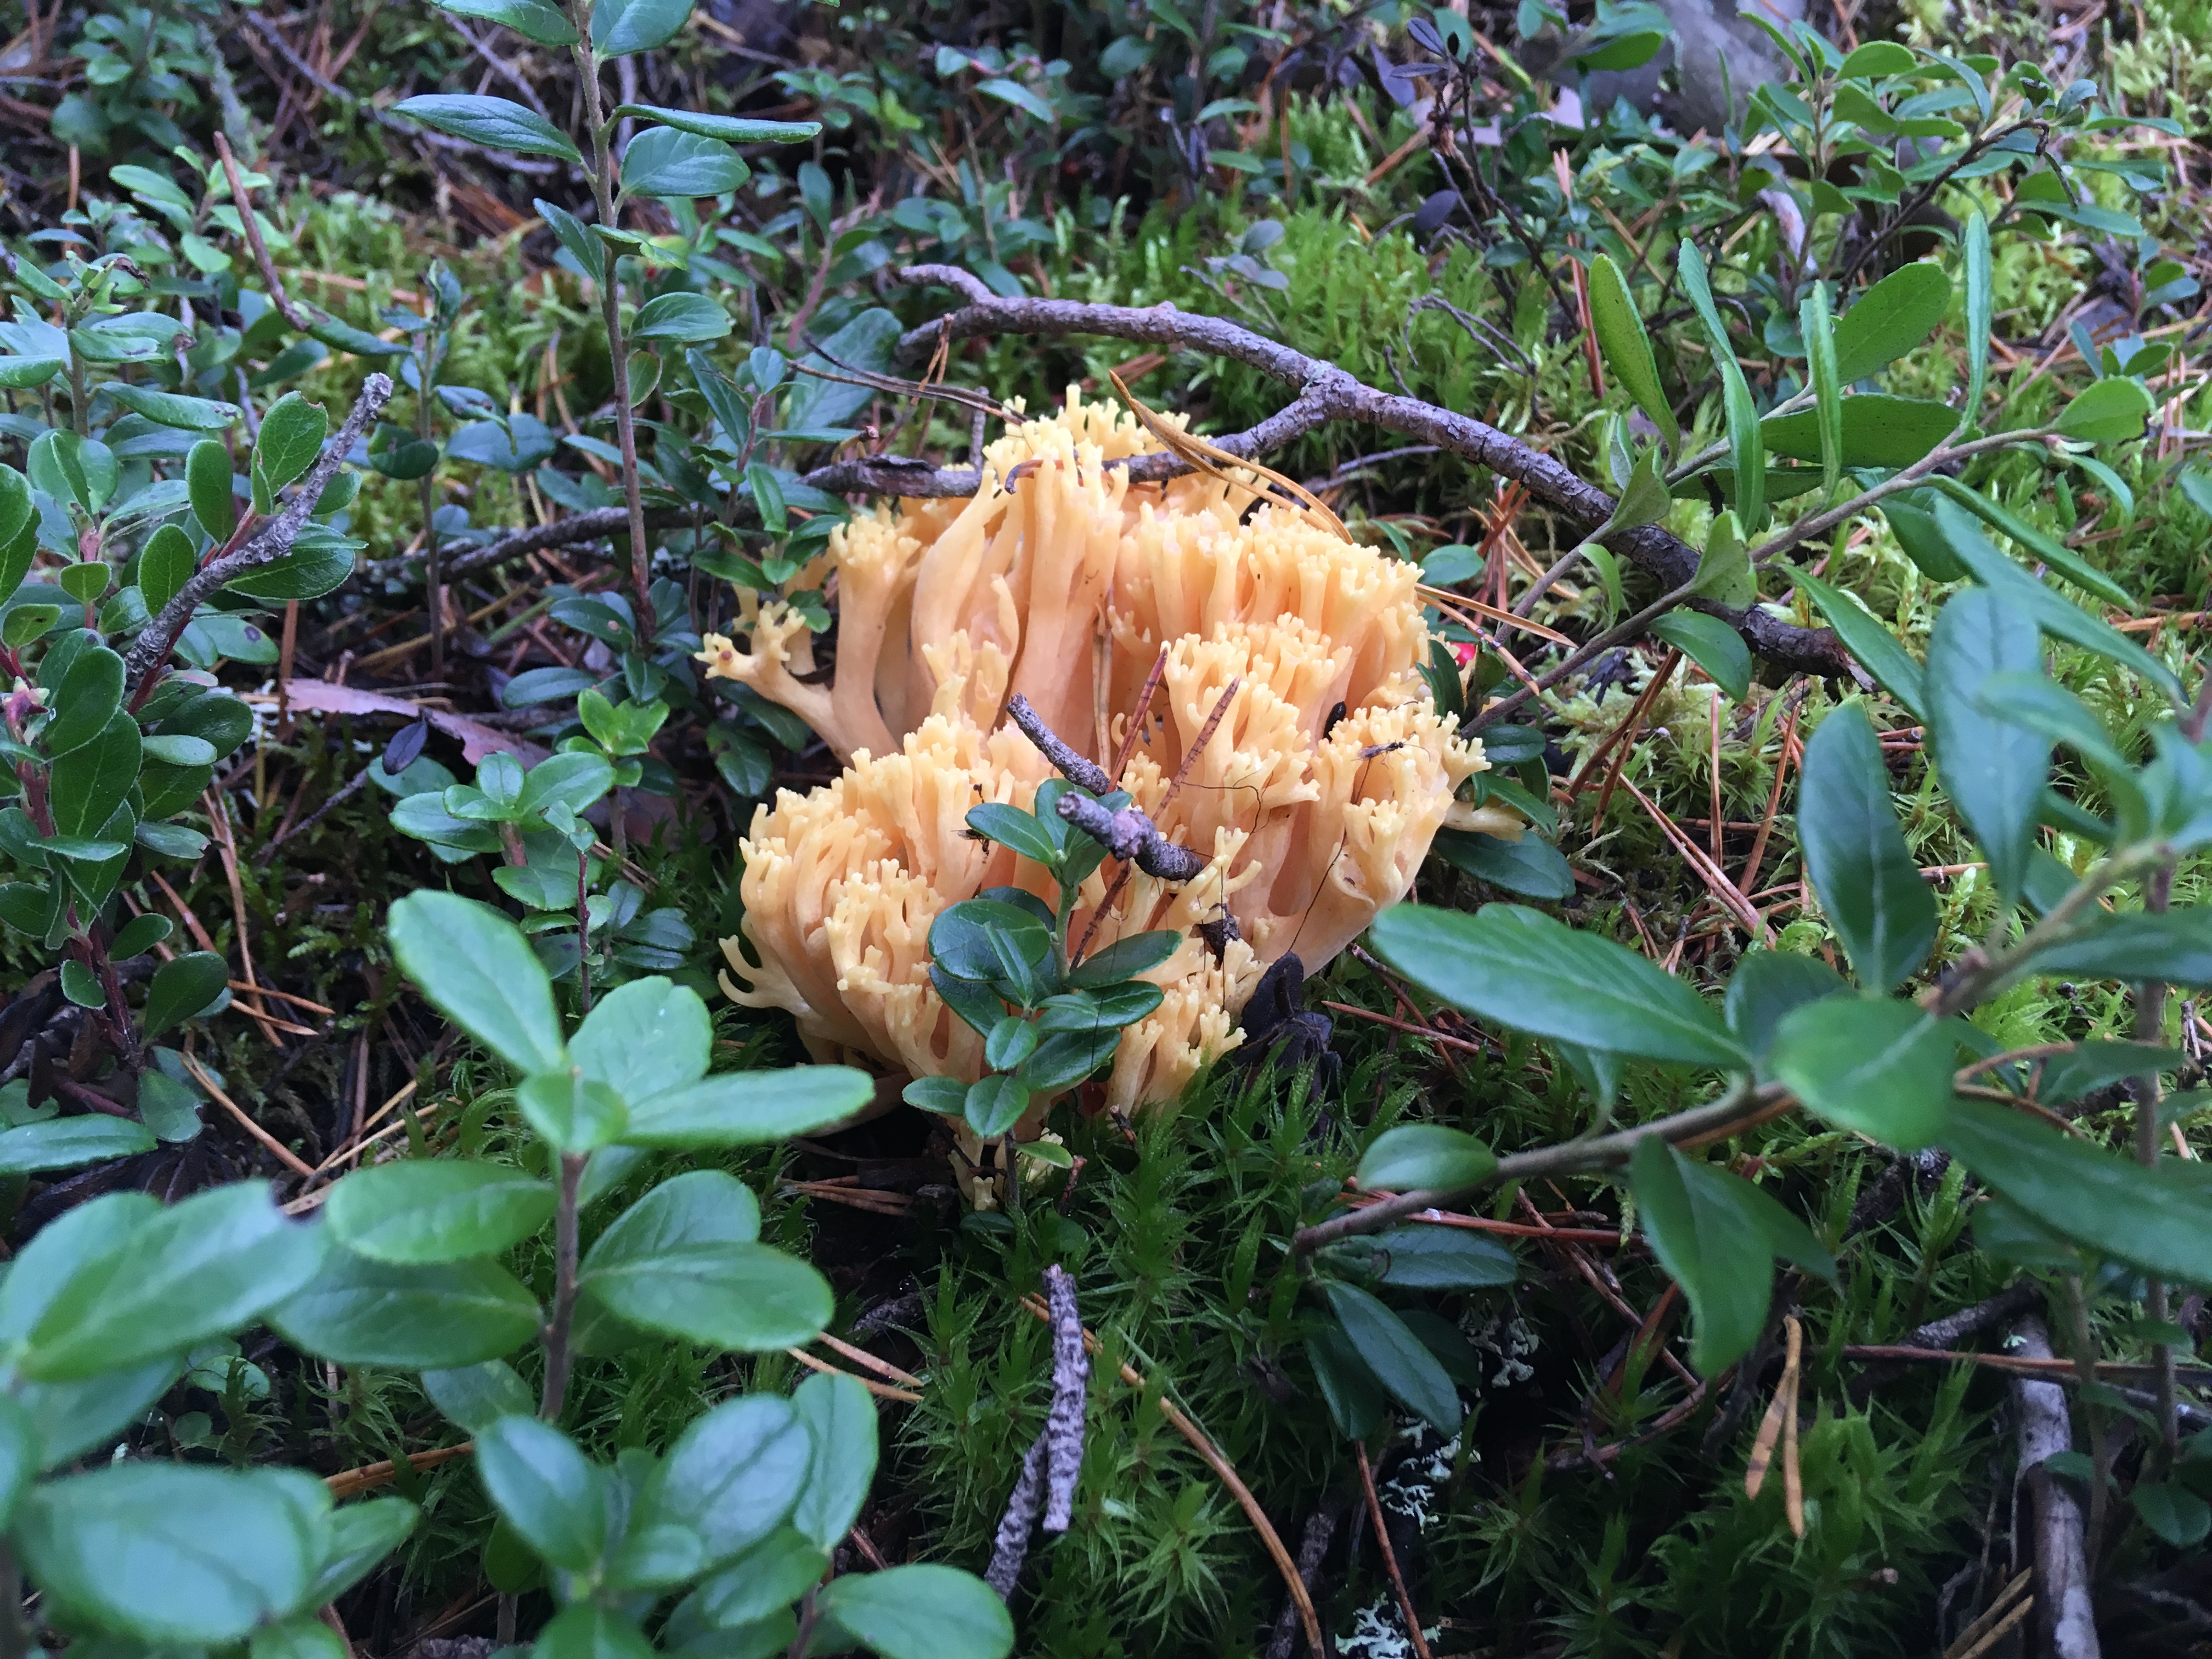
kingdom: Fungi
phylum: Basidiomycota
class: Agaricomycetes
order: Gomphales
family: Gomphaceae
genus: Ramaria
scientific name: Ramaria eosanguinea
